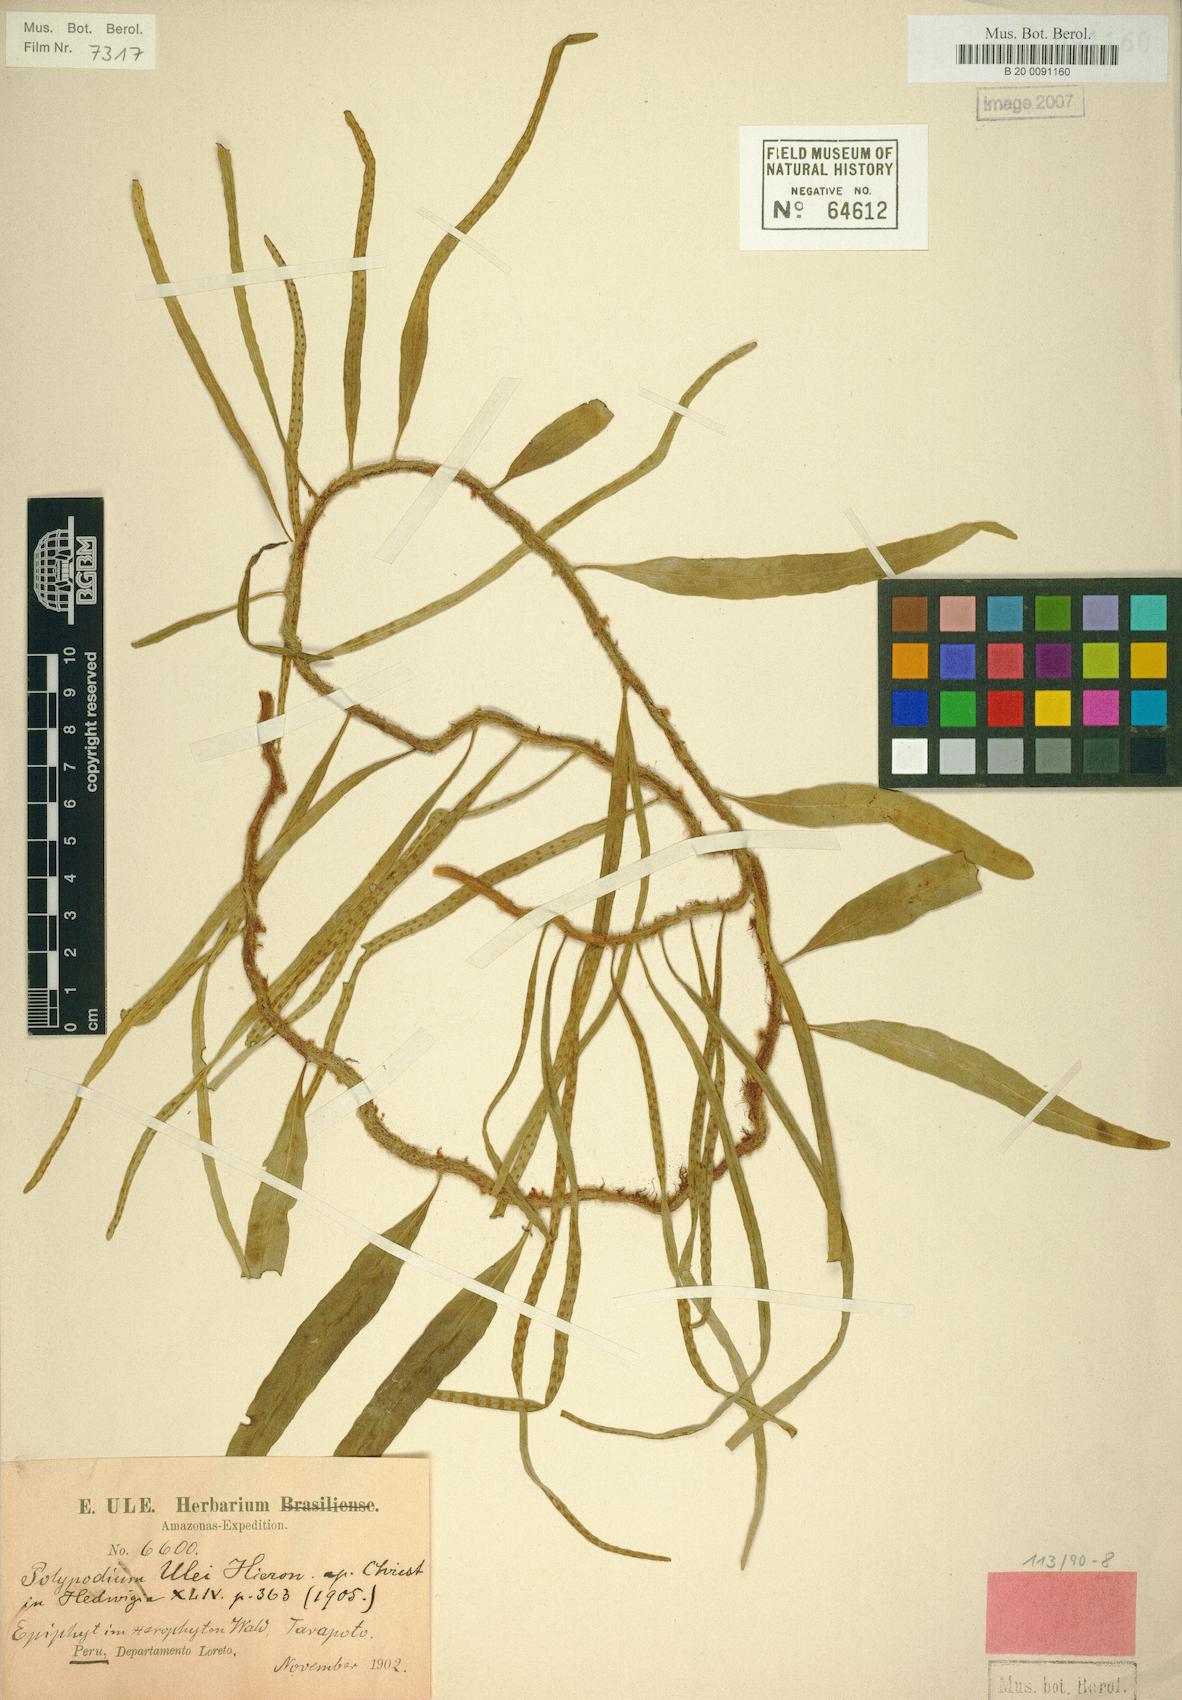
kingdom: Plantae
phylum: Tracheophyta
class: Polypodiopsida
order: Polypodiales
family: Polypodiaceae
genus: Microgramma
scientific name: Microgramma ulei
